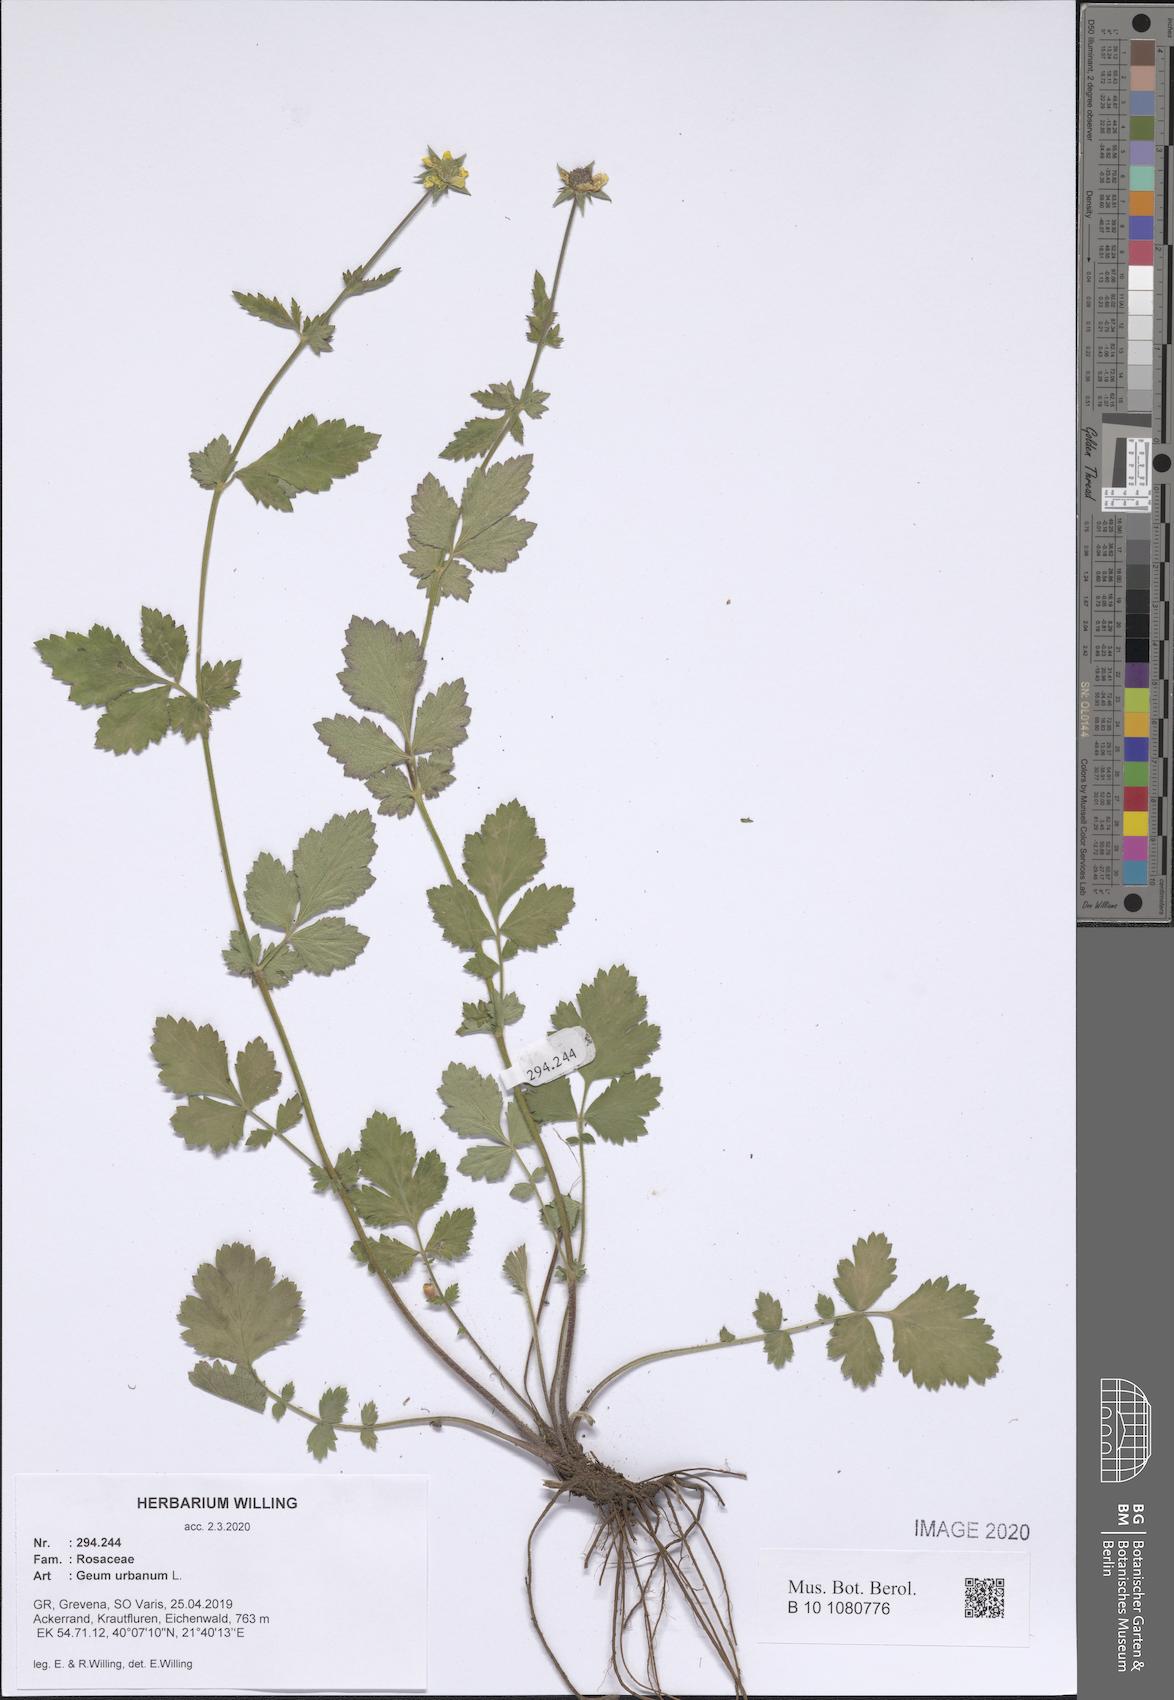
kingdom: Plantae
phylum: Tracheophyta
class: Magnoliopsida
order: Rosales
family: Rosaceae
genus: Geum
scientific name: Geum urbanum
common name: Wood avens
